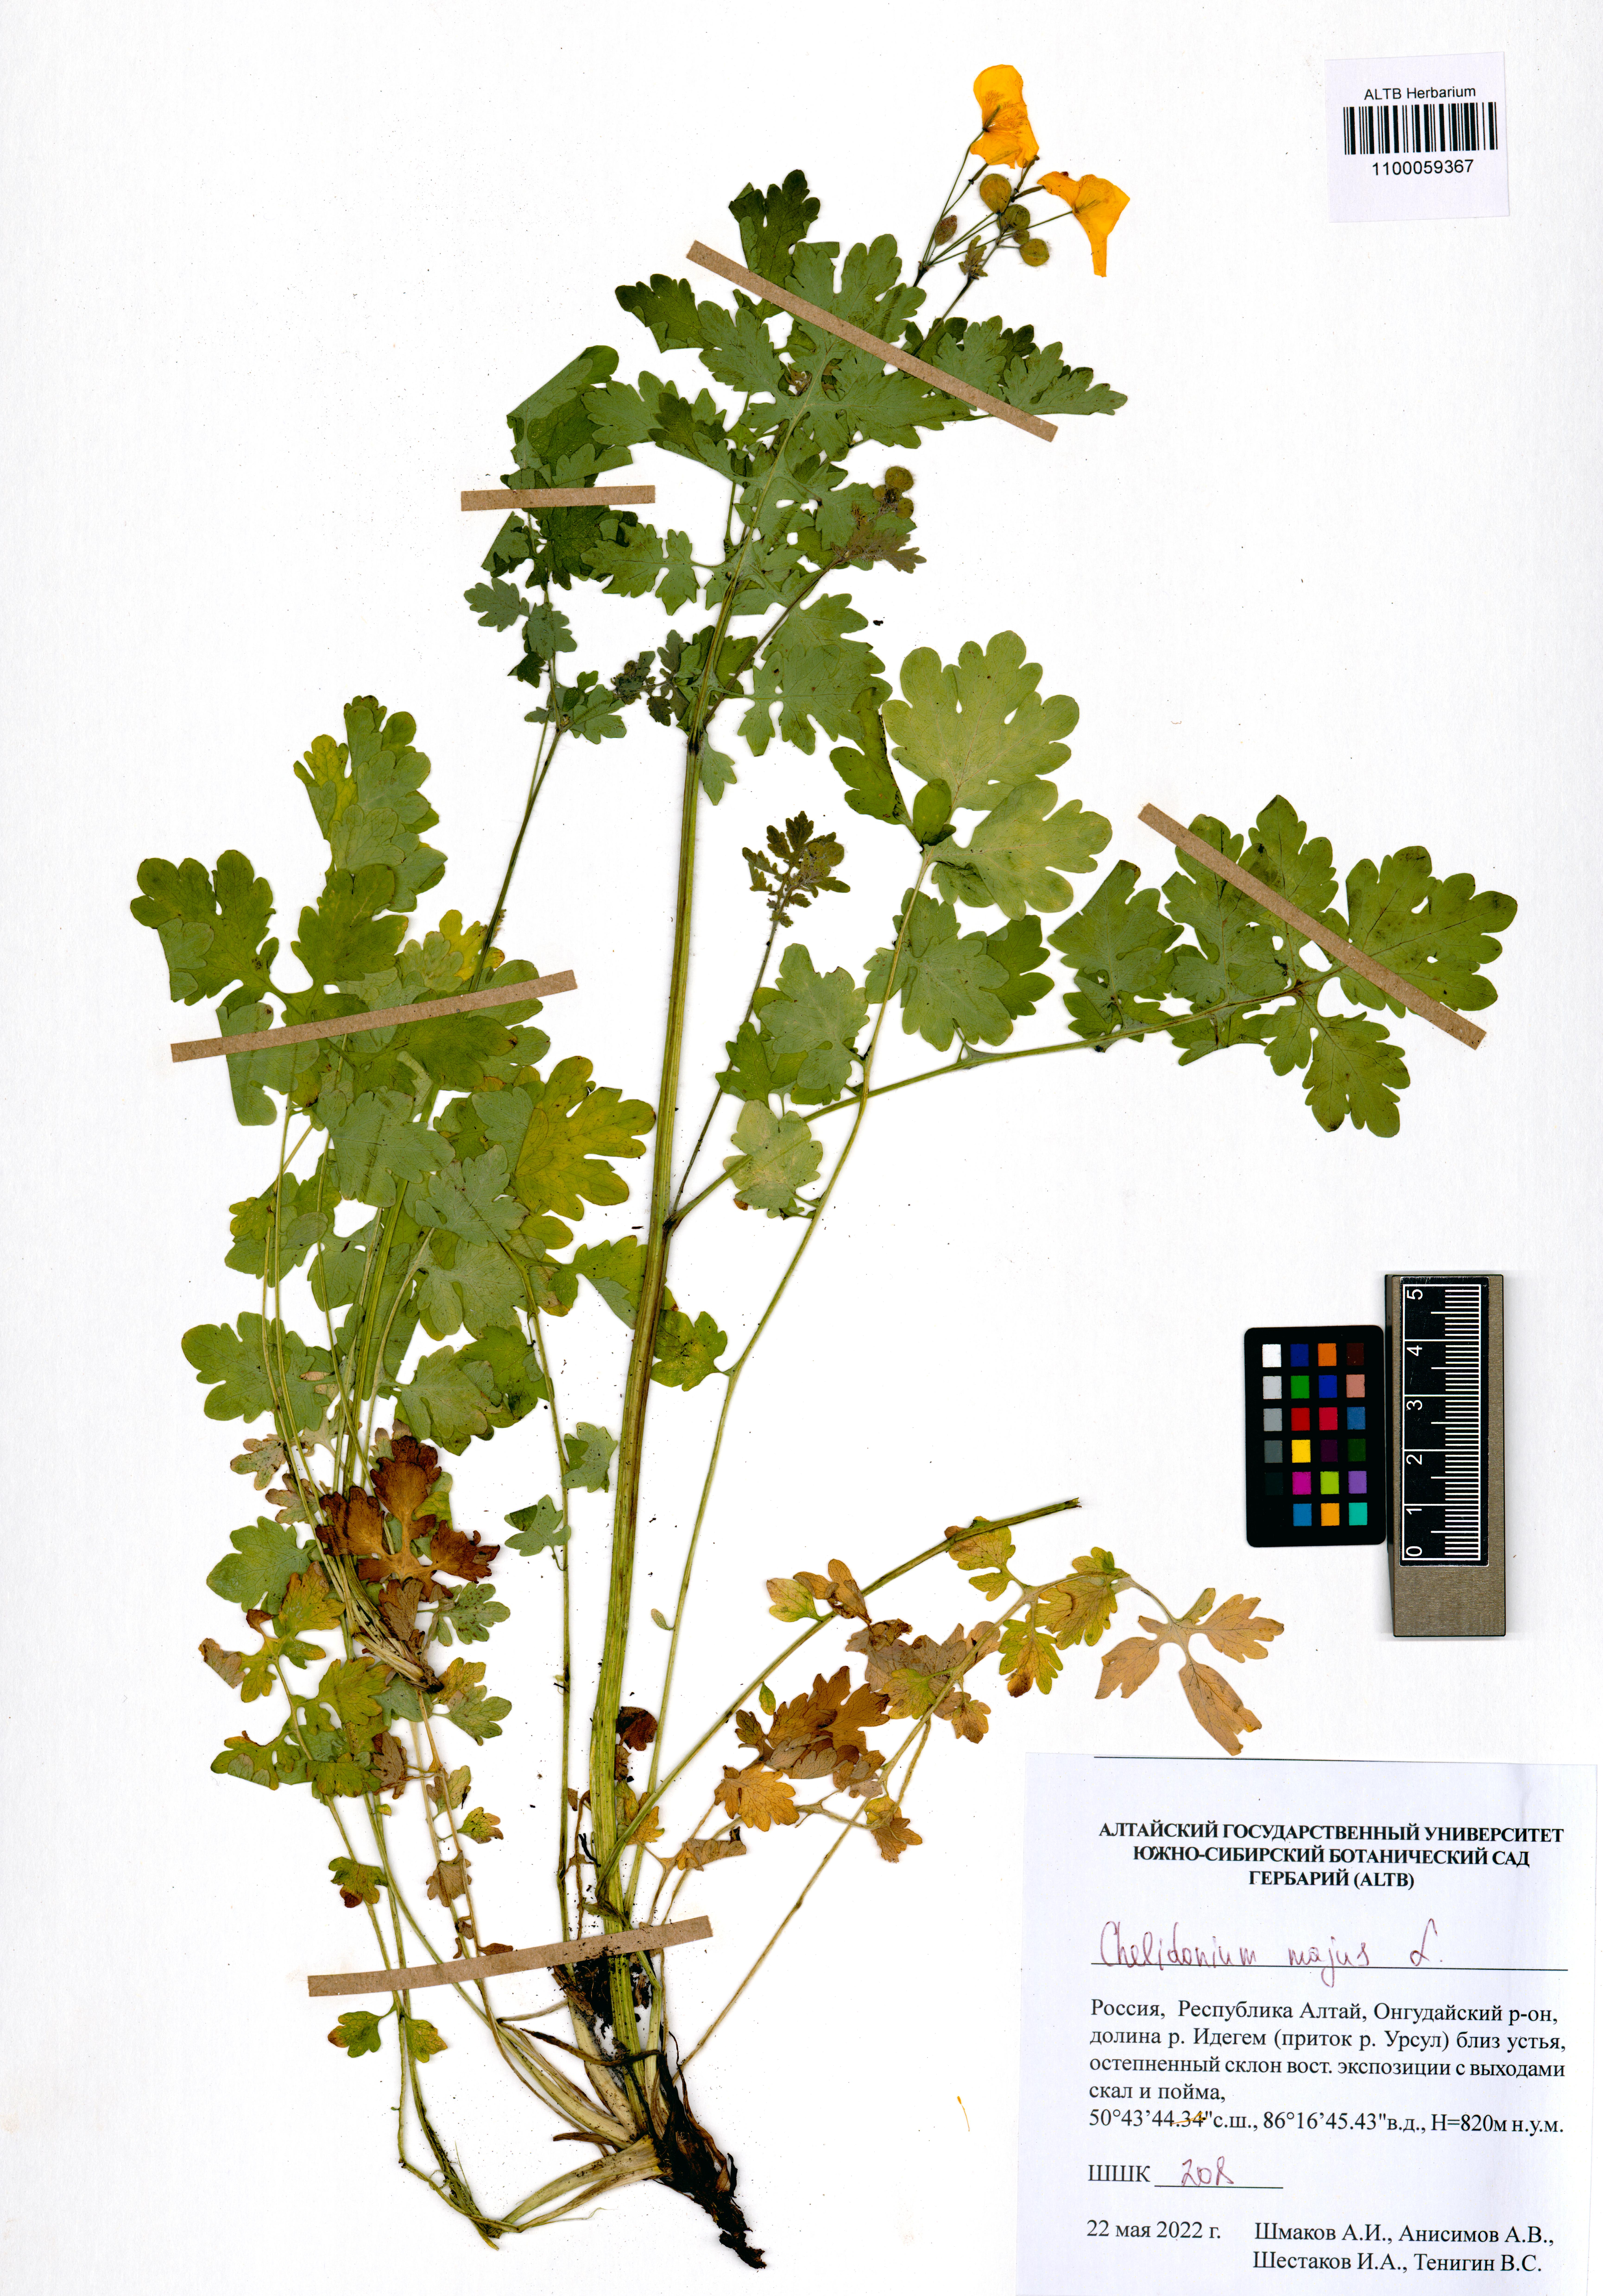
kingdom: Plantae
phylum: Tracheophyta
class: Magnoliopsida
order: Ranunculales
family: Papaveraceae
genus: Chelidonium
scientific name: Chelidonium majus
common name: Greater celandine
